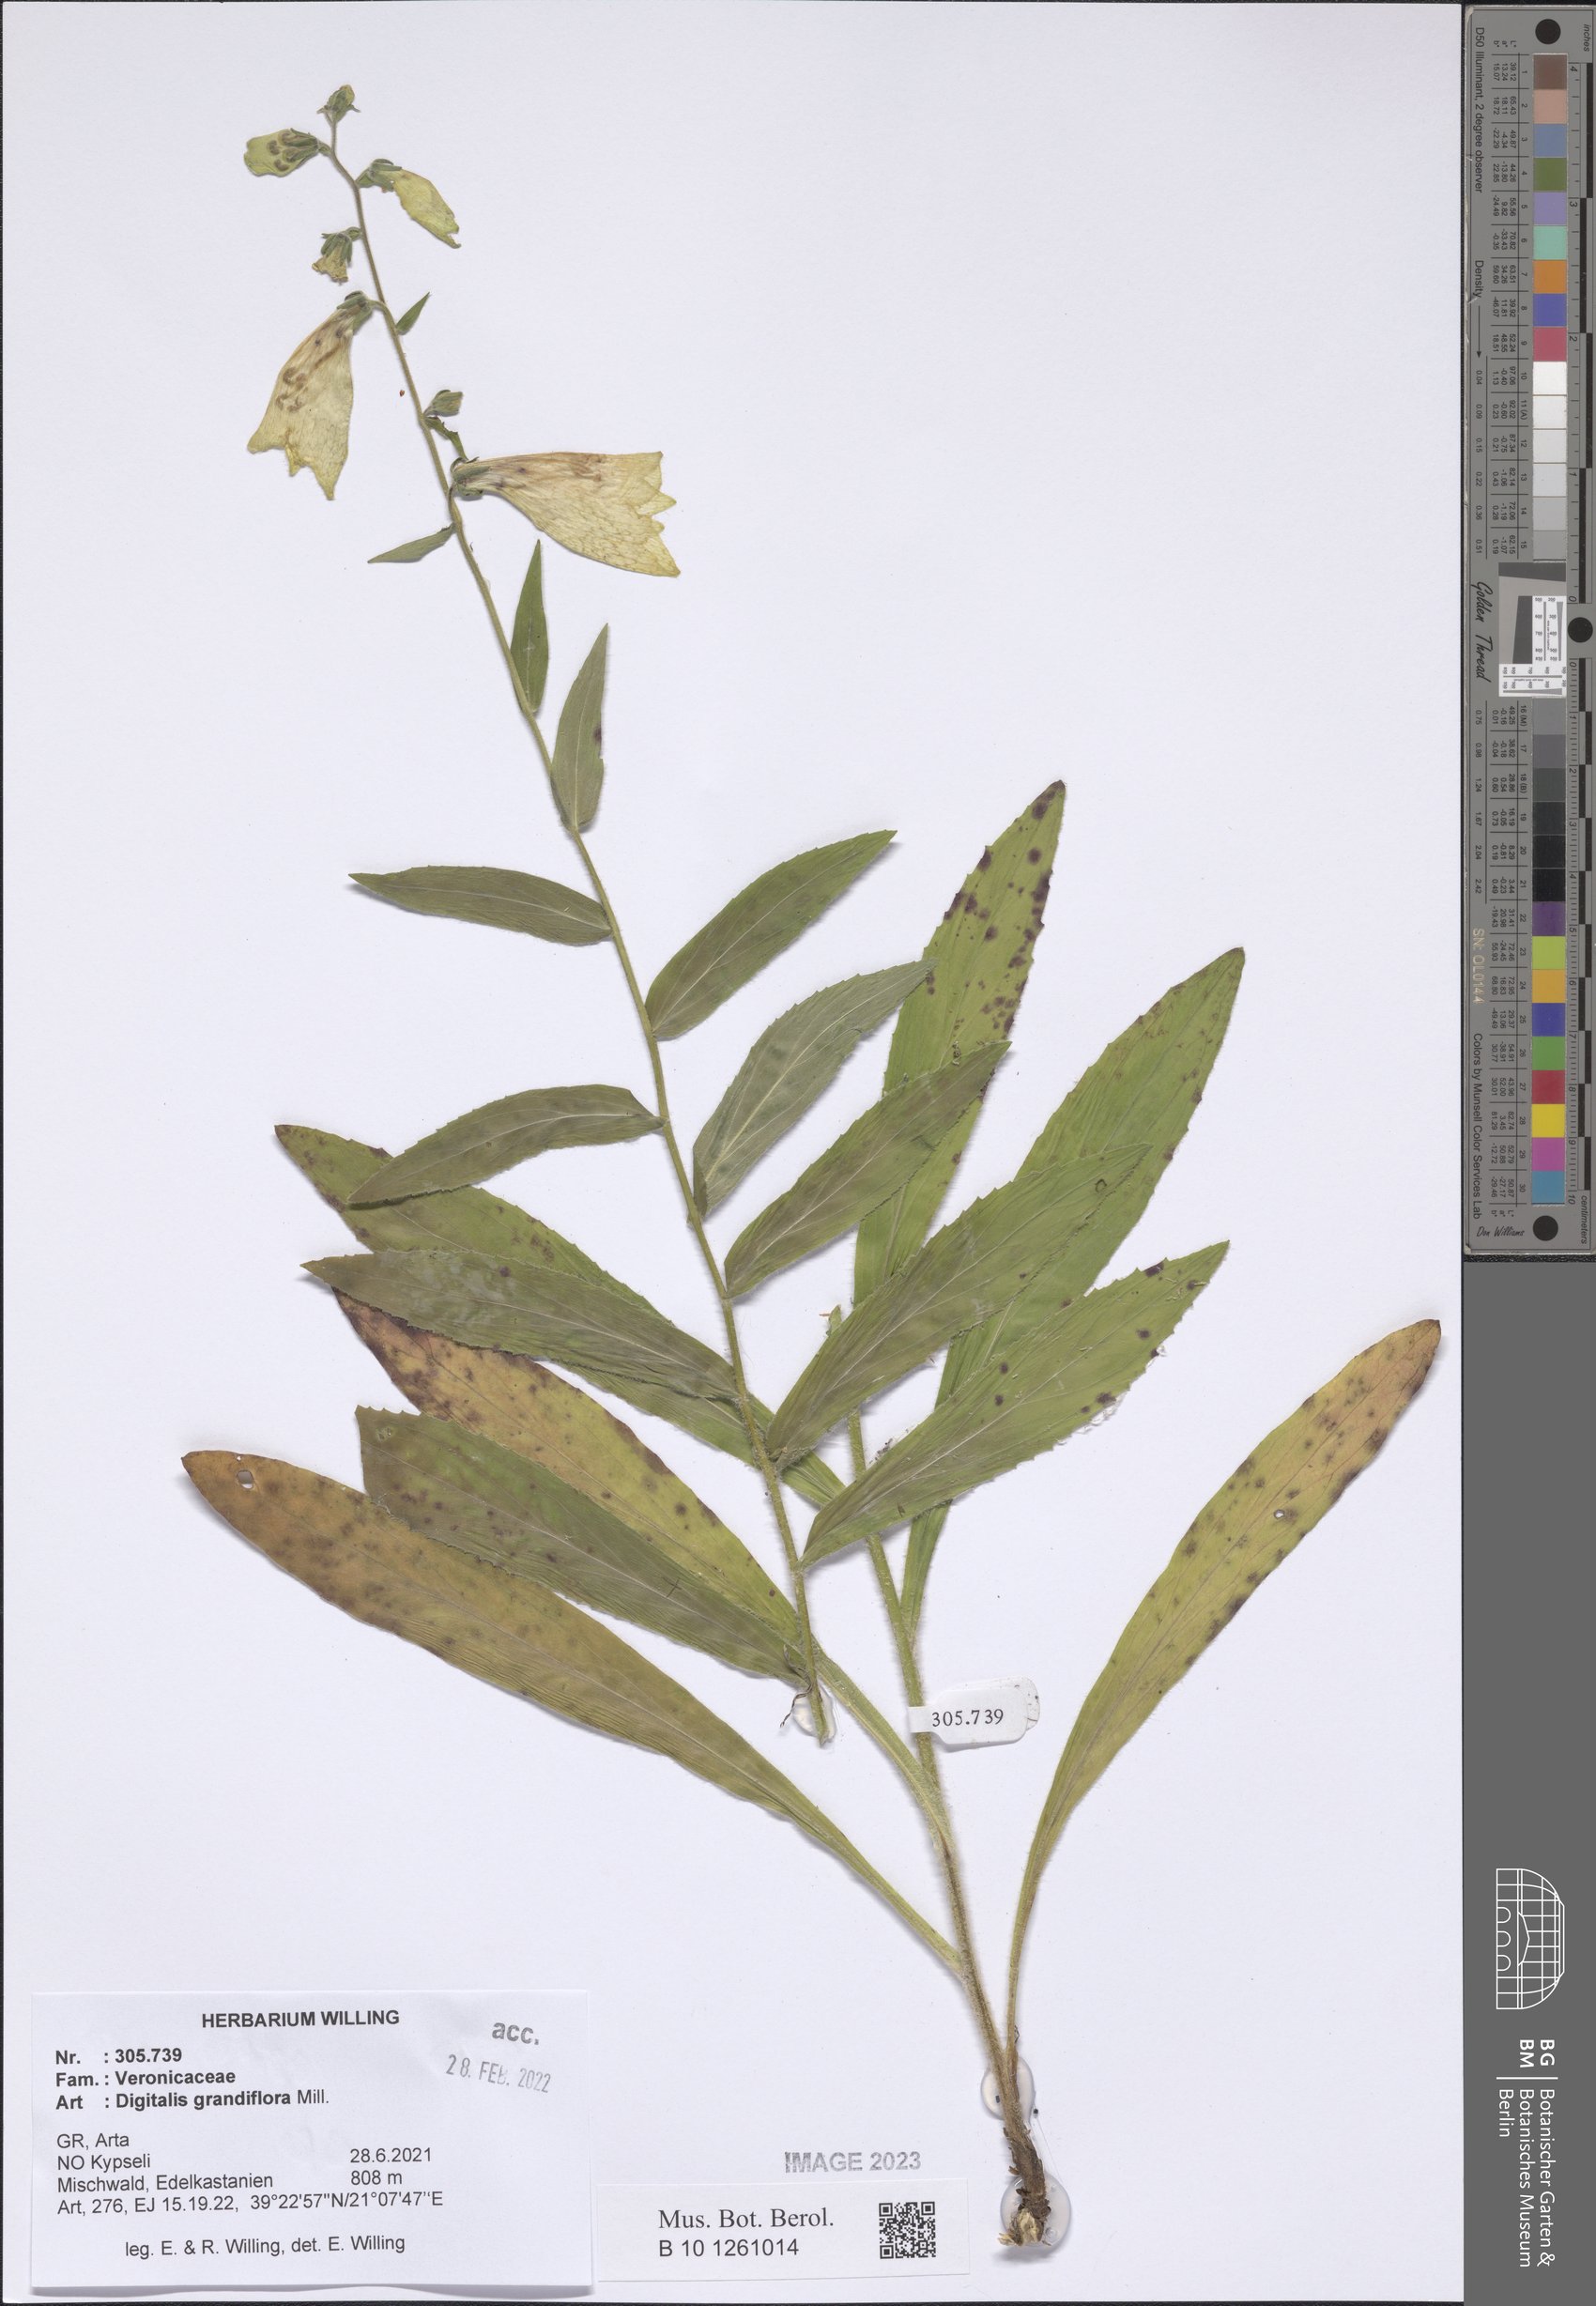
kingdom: Plantae
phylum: Tracheophyta
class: Magnoliopsida
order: Lamiales
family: Plantaginaceae
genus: Digitalis
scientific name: Digitalis grandiflora
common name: Yellow foxglove
